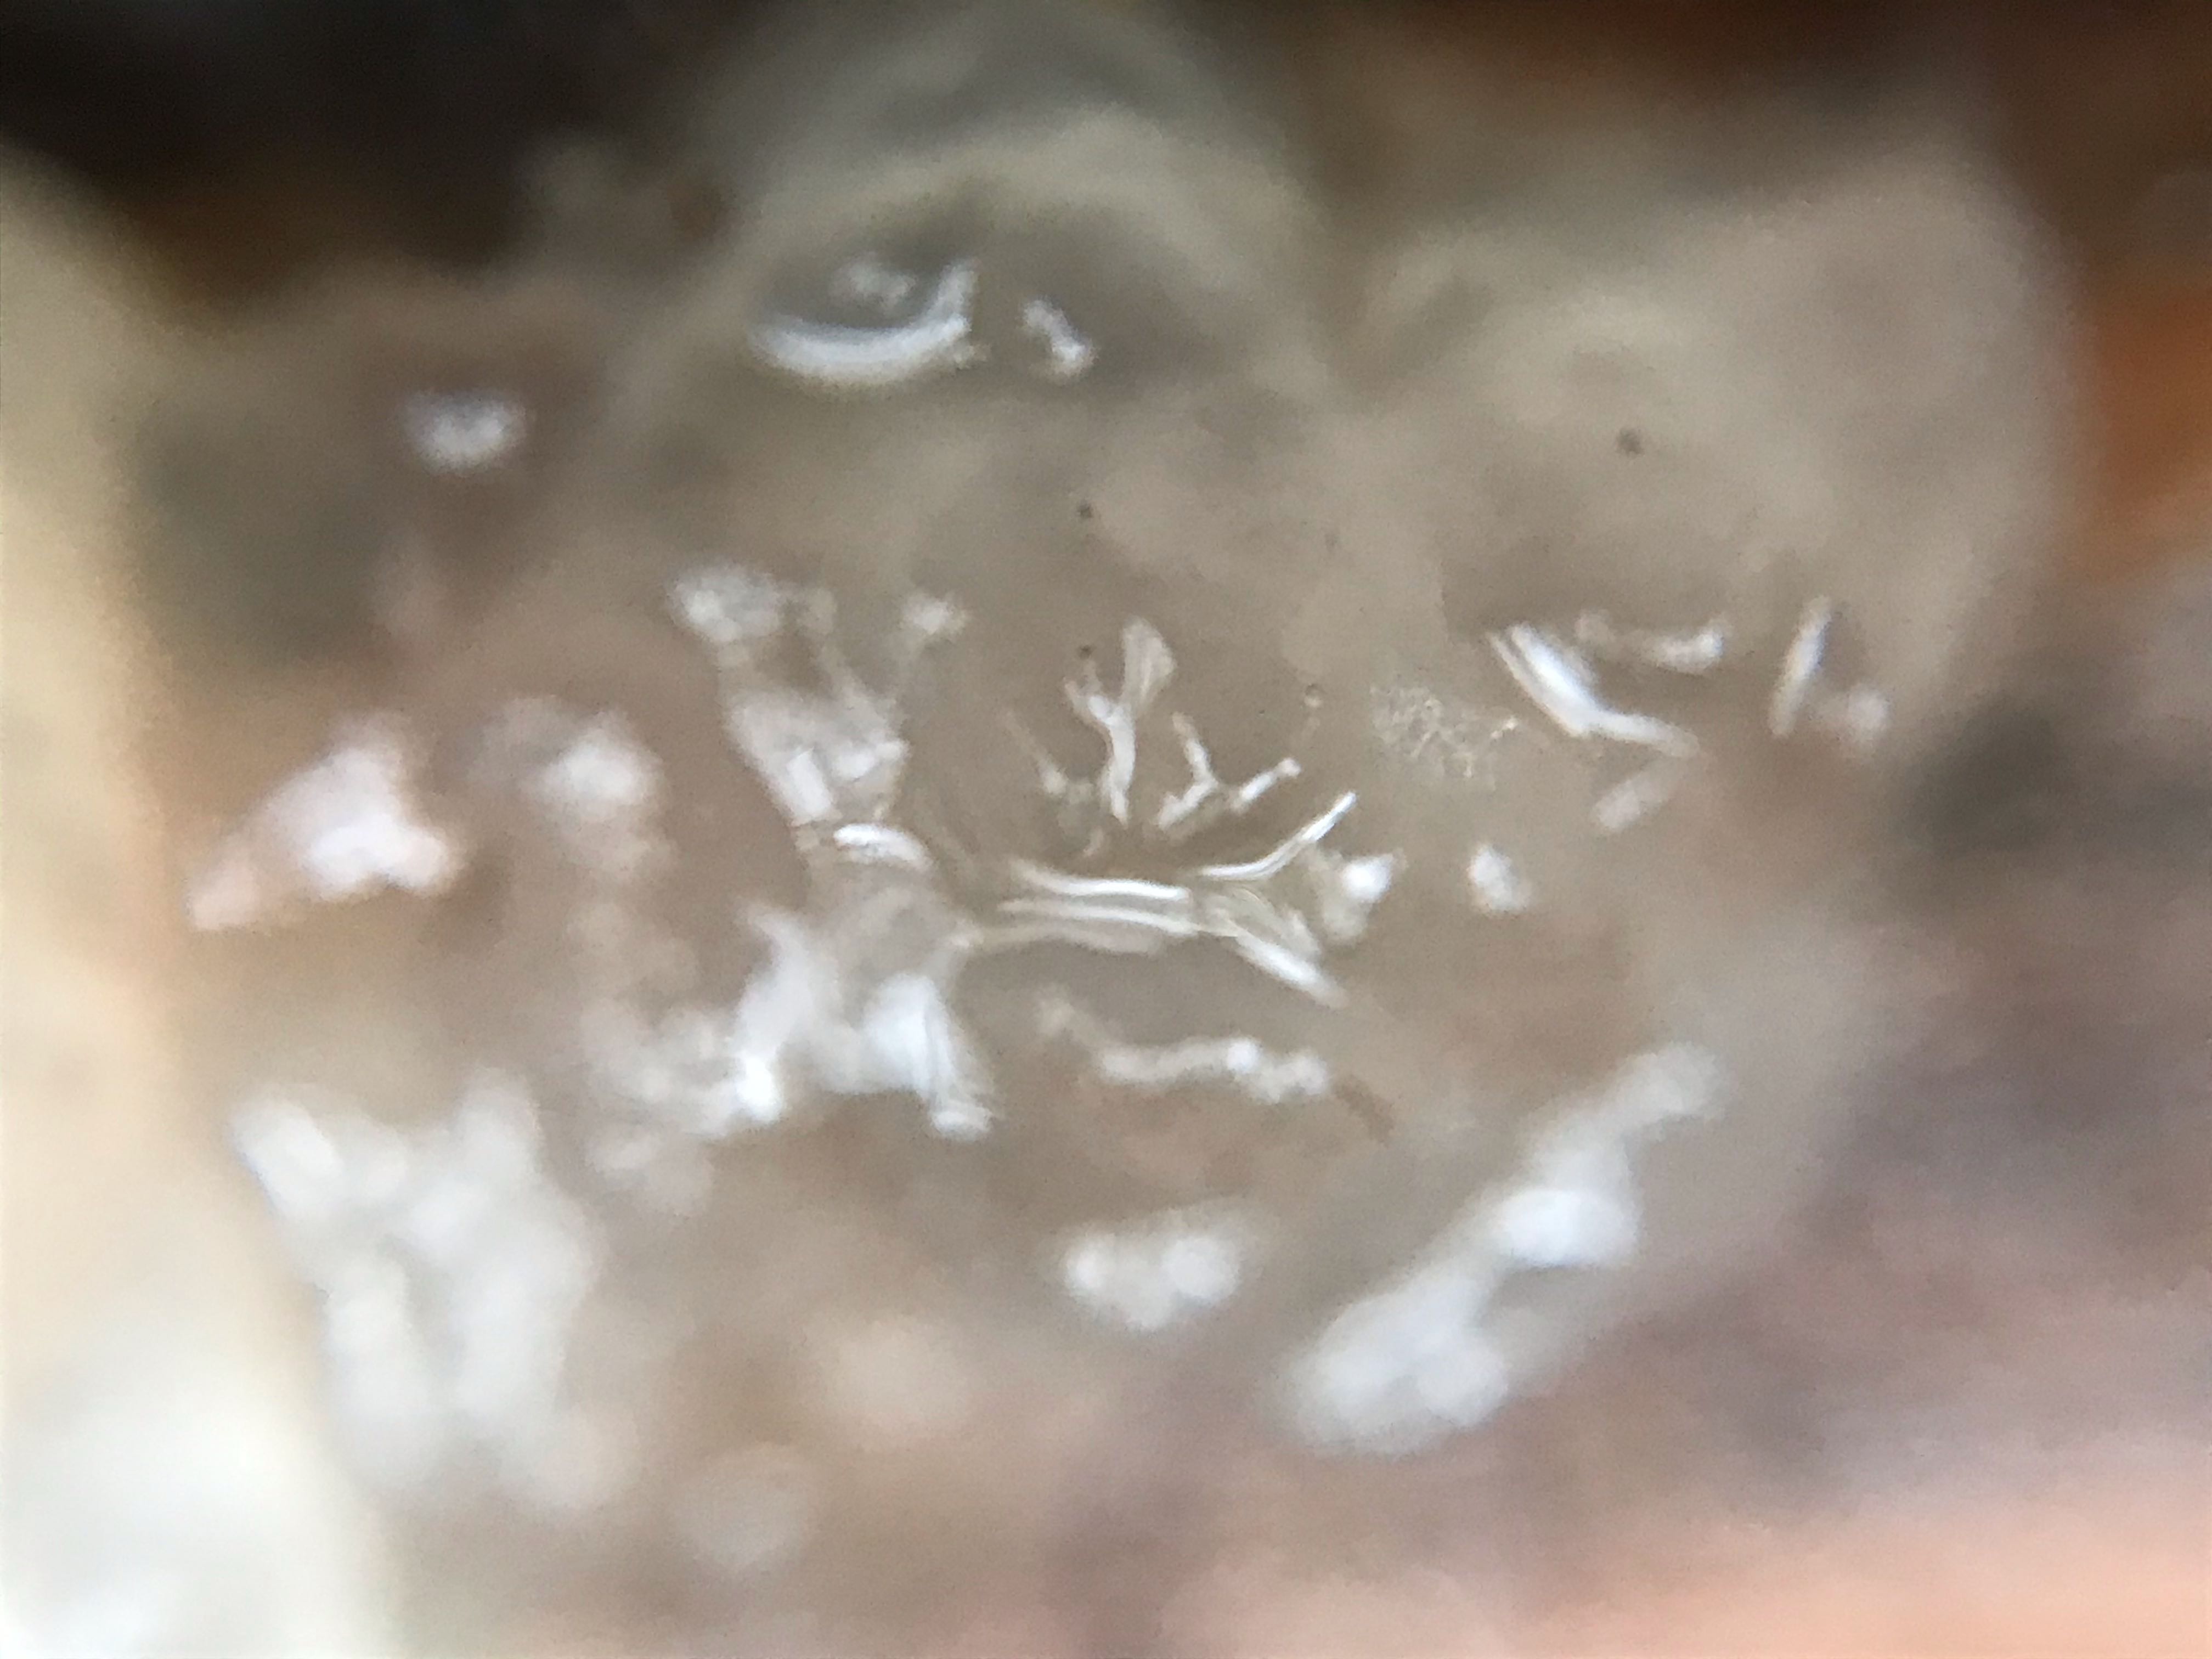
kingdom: Fungi
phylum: Basidiomycota
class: Agaricomycetes
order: Auriculariales
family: Hyaloriaceae
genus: Myxarium
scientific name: Myxarium nucleatum
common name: klar bævretop
